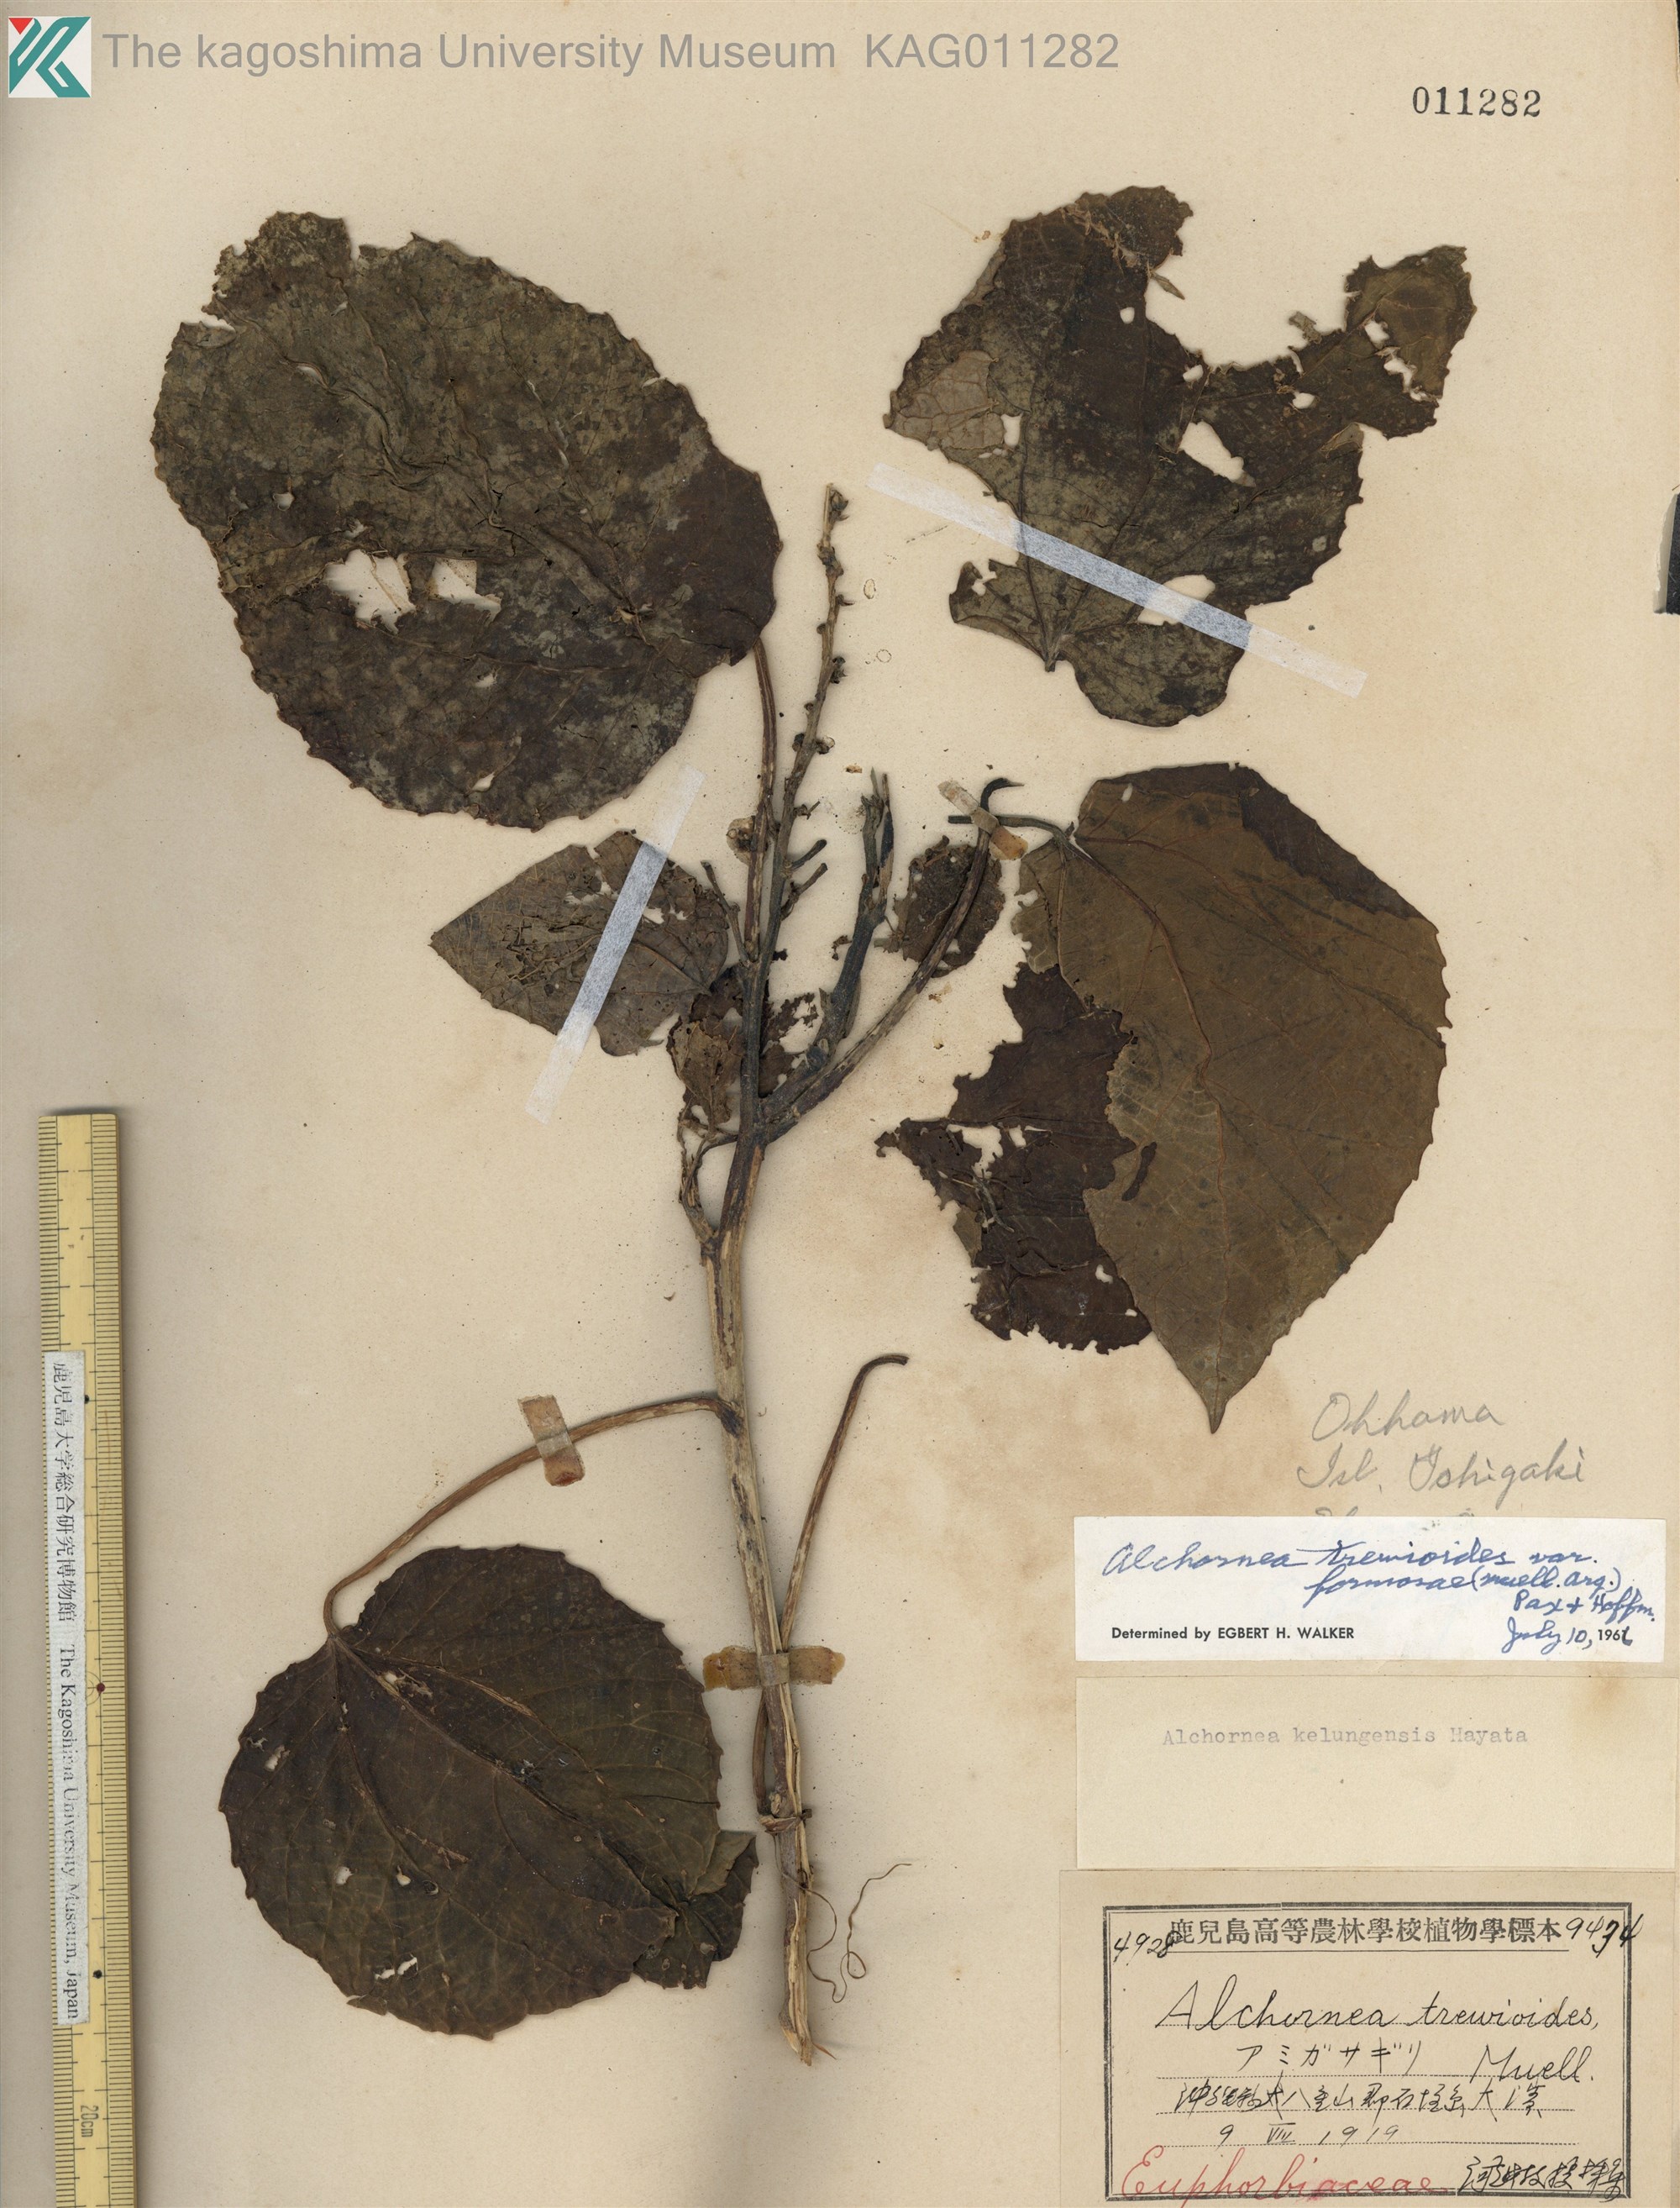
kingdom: Plantae
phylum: Tracheophyta
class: Magnoliopsida
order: Malpighiales
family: Euphorbiaceae
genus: Alchornea
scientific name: Alchornea liukiuensis
